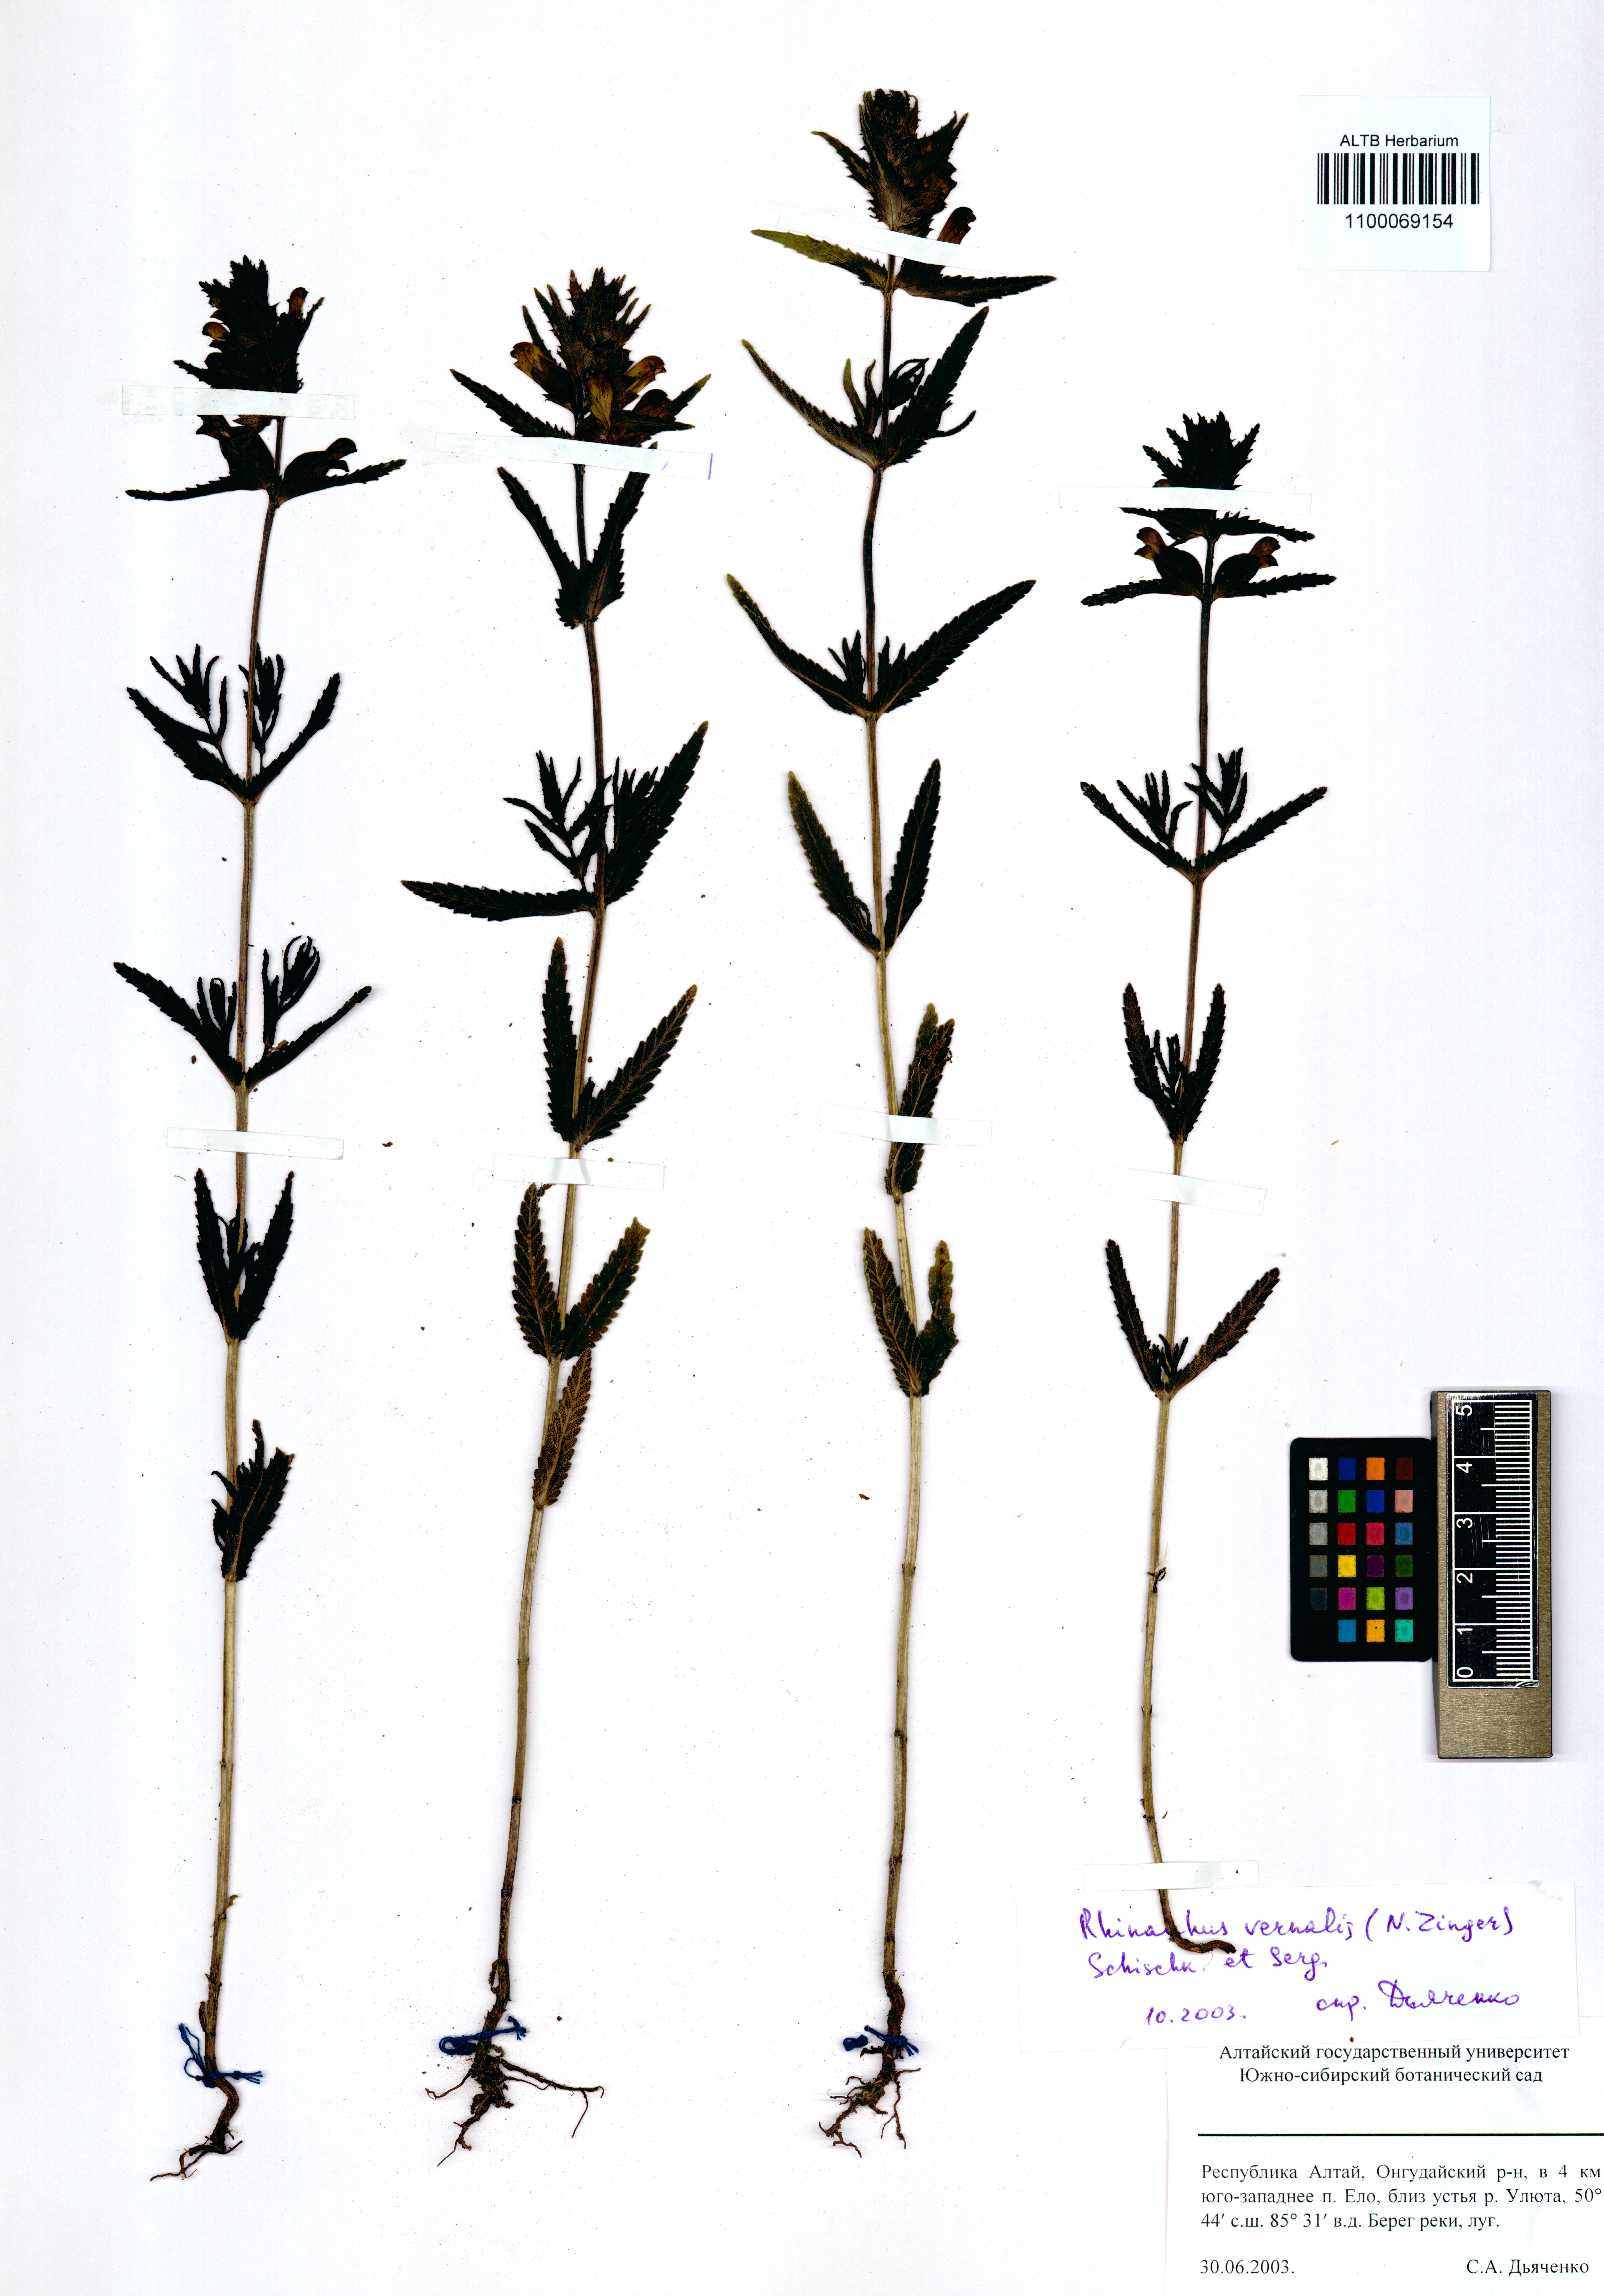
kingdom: Plantae
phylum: Tracheophyta
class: Magnoliopsida
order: Lamiales
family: Orobanchaceae
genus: Rhinanthus
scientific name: Rhinanthus serotinus
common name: Late-flowering yellow rattle
